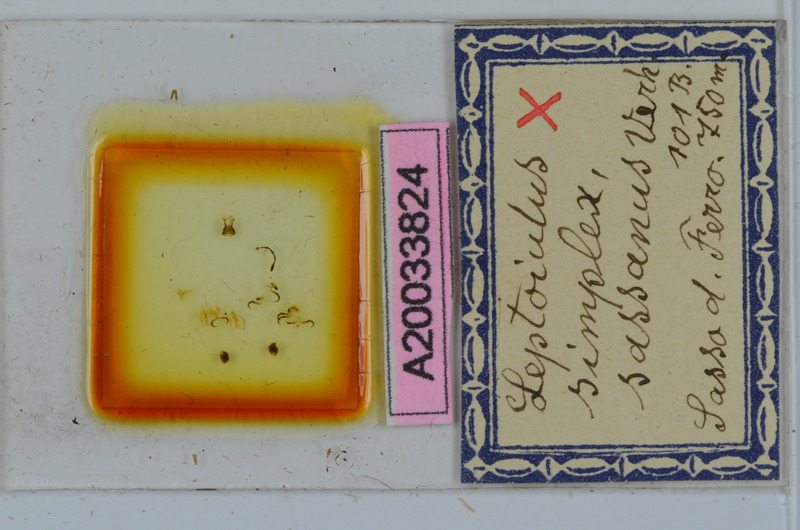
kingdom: Animalia
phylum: Arthropoda
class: Diplopoda
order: Julida
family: Julidae
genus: Leptoiulus
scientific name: Leptoiulus simplex
